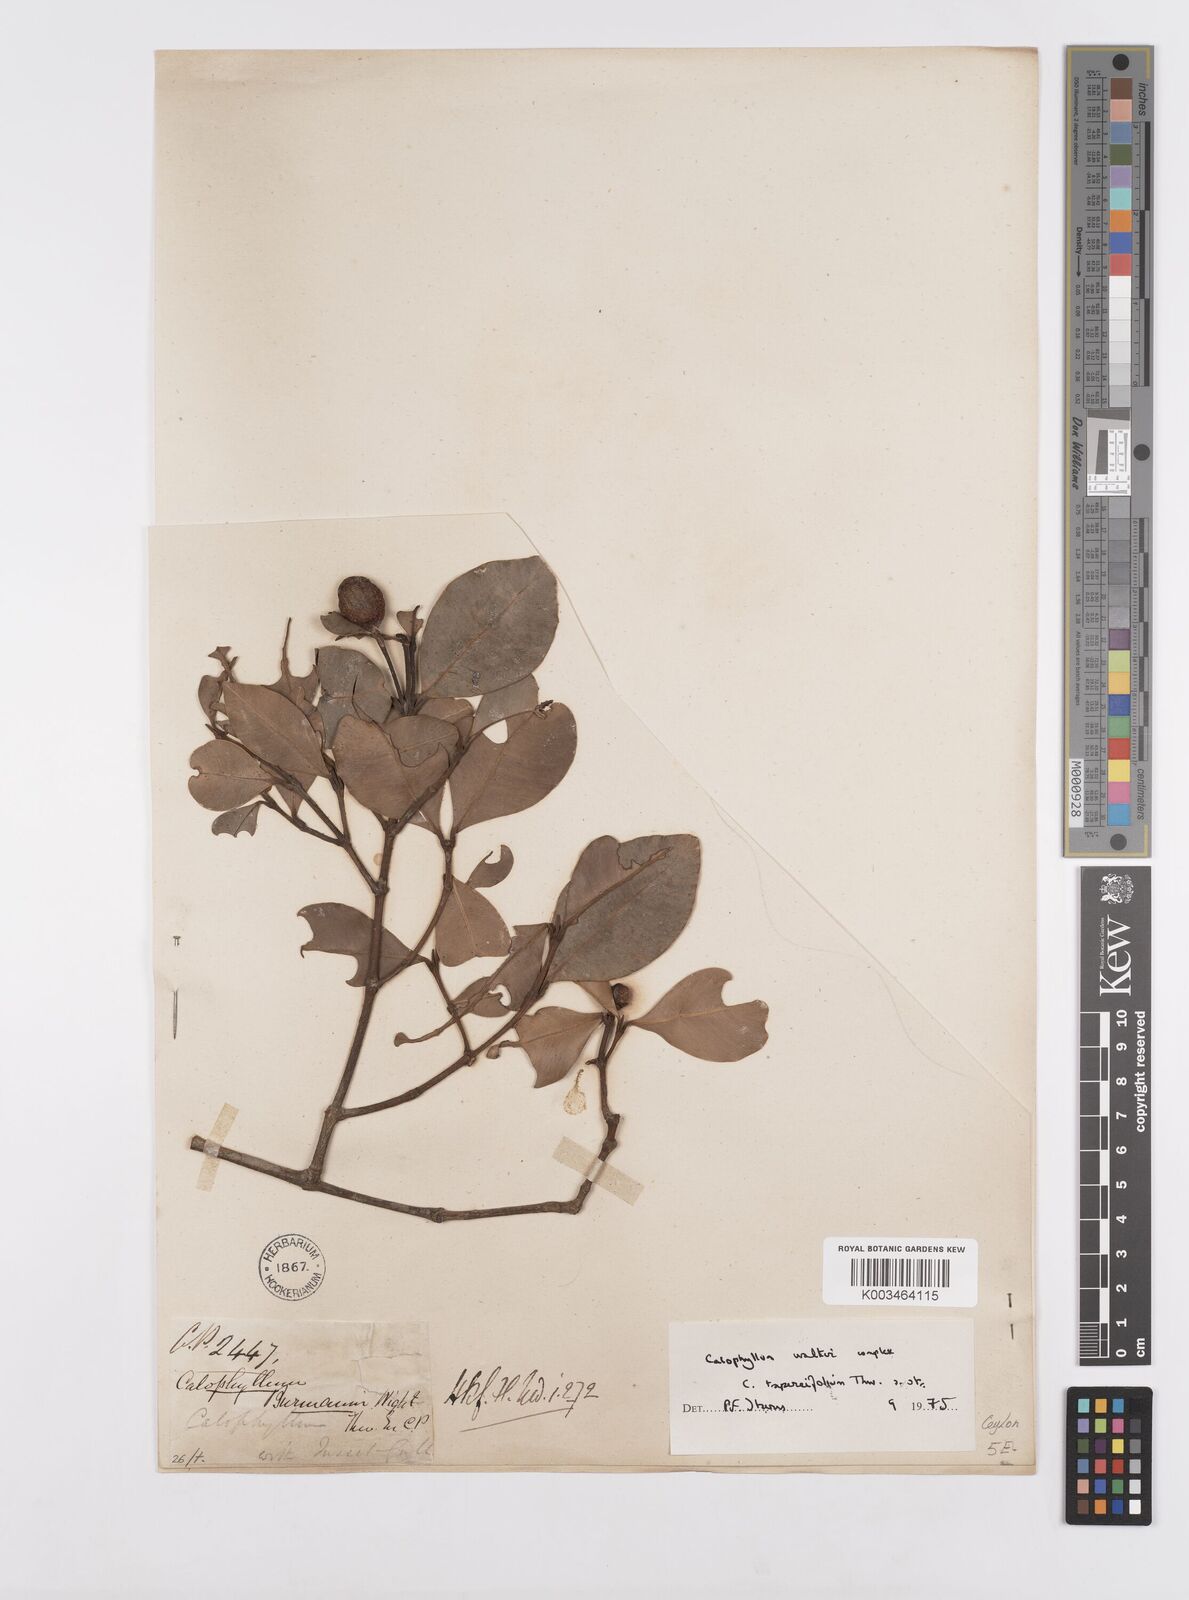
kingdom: Plantae
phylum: Tracheophyta
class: Magnoliopsida
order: Malpighiales
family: Calophyllaceae
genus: Calophyllum
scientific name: Calophyllum trapezifolium
